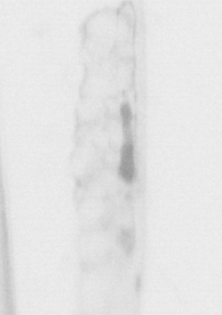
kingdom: Animalia
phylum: Chaetognatha
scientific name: Chaetognatha
